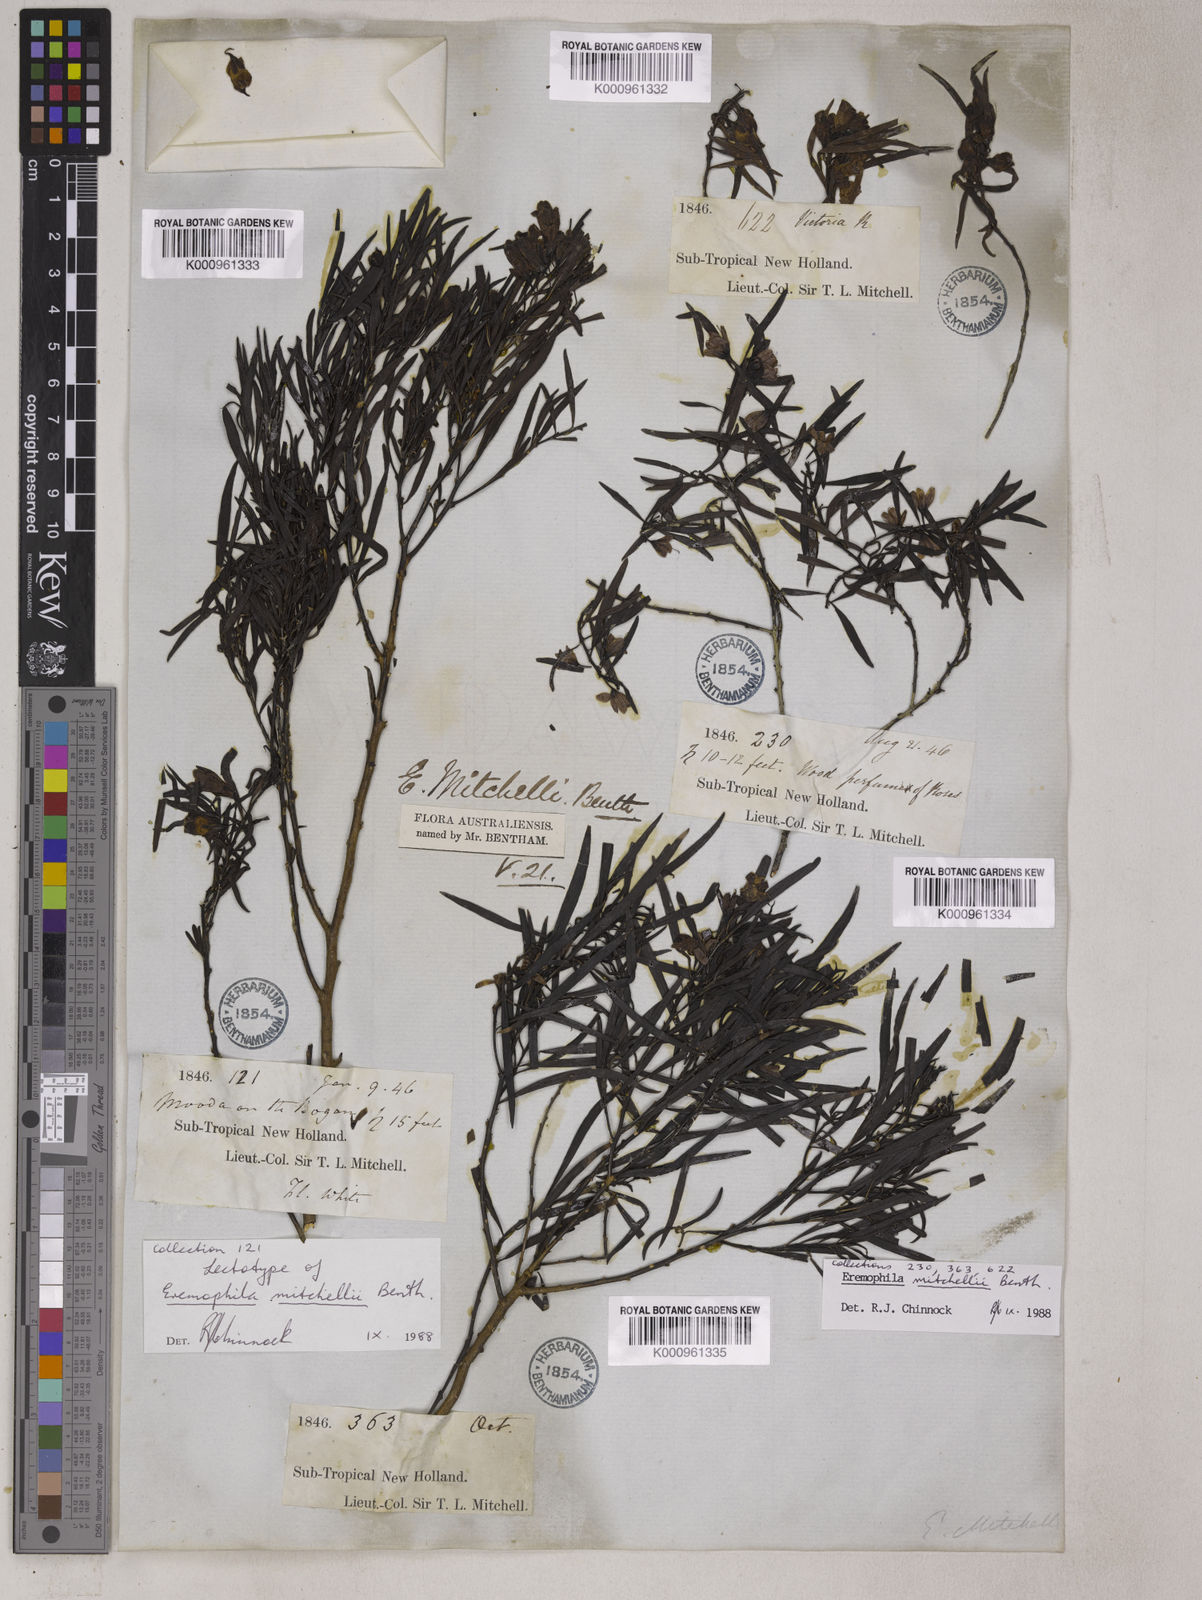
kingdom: Plantae
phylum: Tracheophyta
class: Magnoliopsida
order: Lamiales
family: Scrophulariaceae
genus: Eremophila
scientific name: Eremophila mitchellii
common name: Bastard-sandalwood
